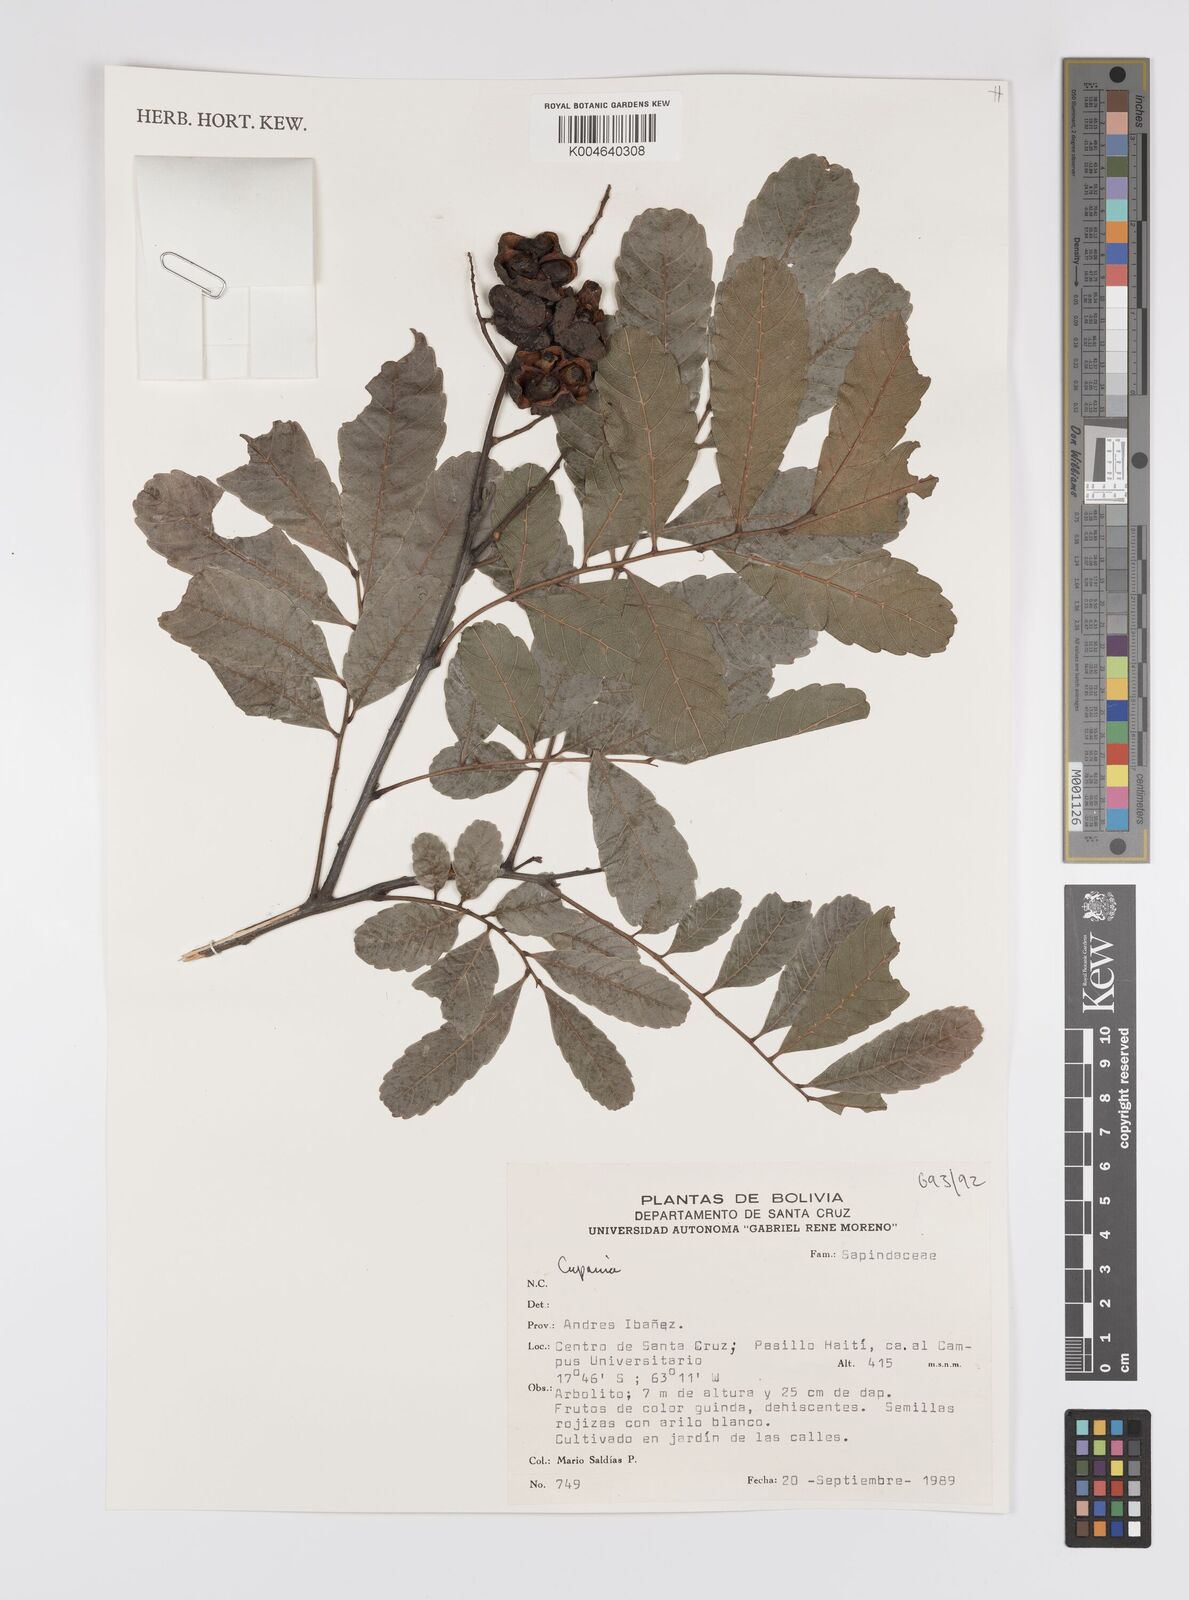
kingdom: Plantae
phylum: Tracheophyta
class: Magnoliopsida
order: Sapindales
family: Sapindaceae
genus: Cupania
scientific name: Cupania
